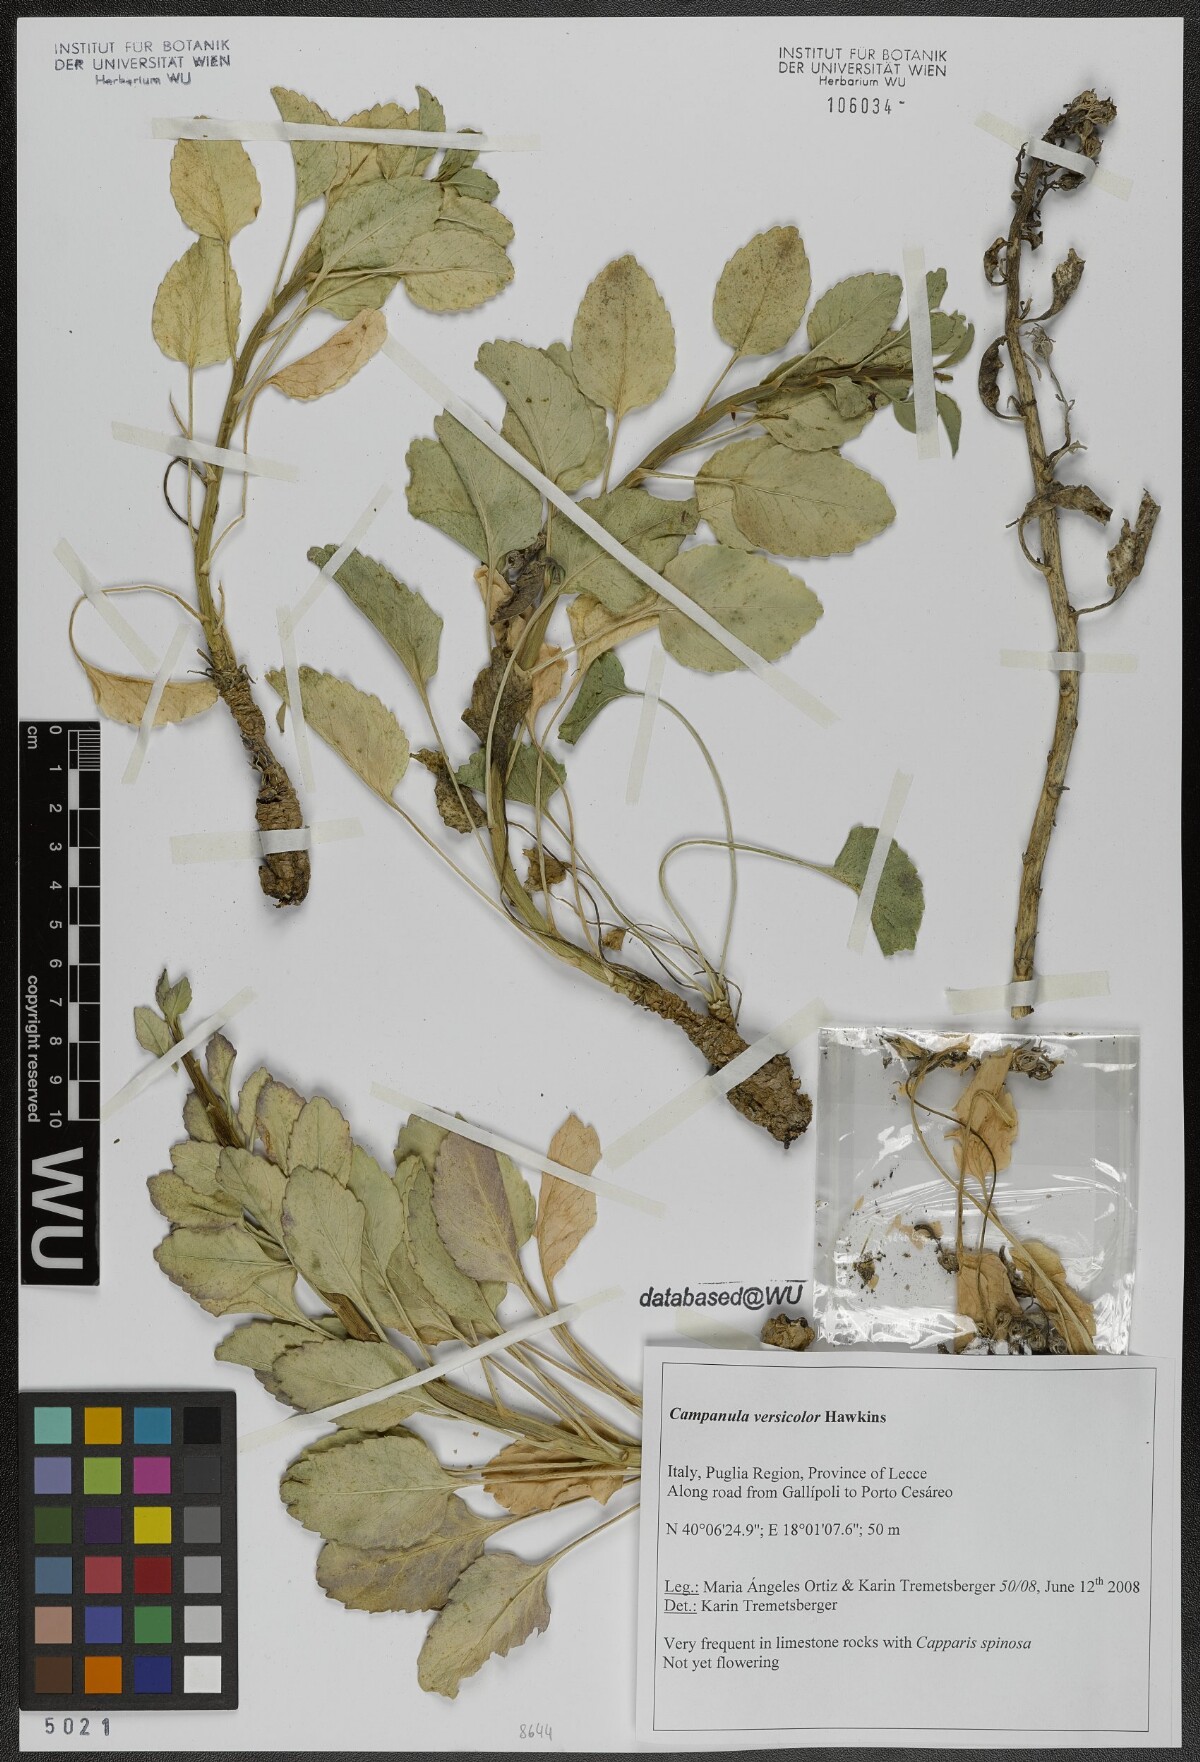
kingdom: Plantae
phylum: Tracheophyta
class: Magnoliopsida
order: Asterales
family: Campanulaceae
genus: Campanula
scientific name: Campanula versicolor
